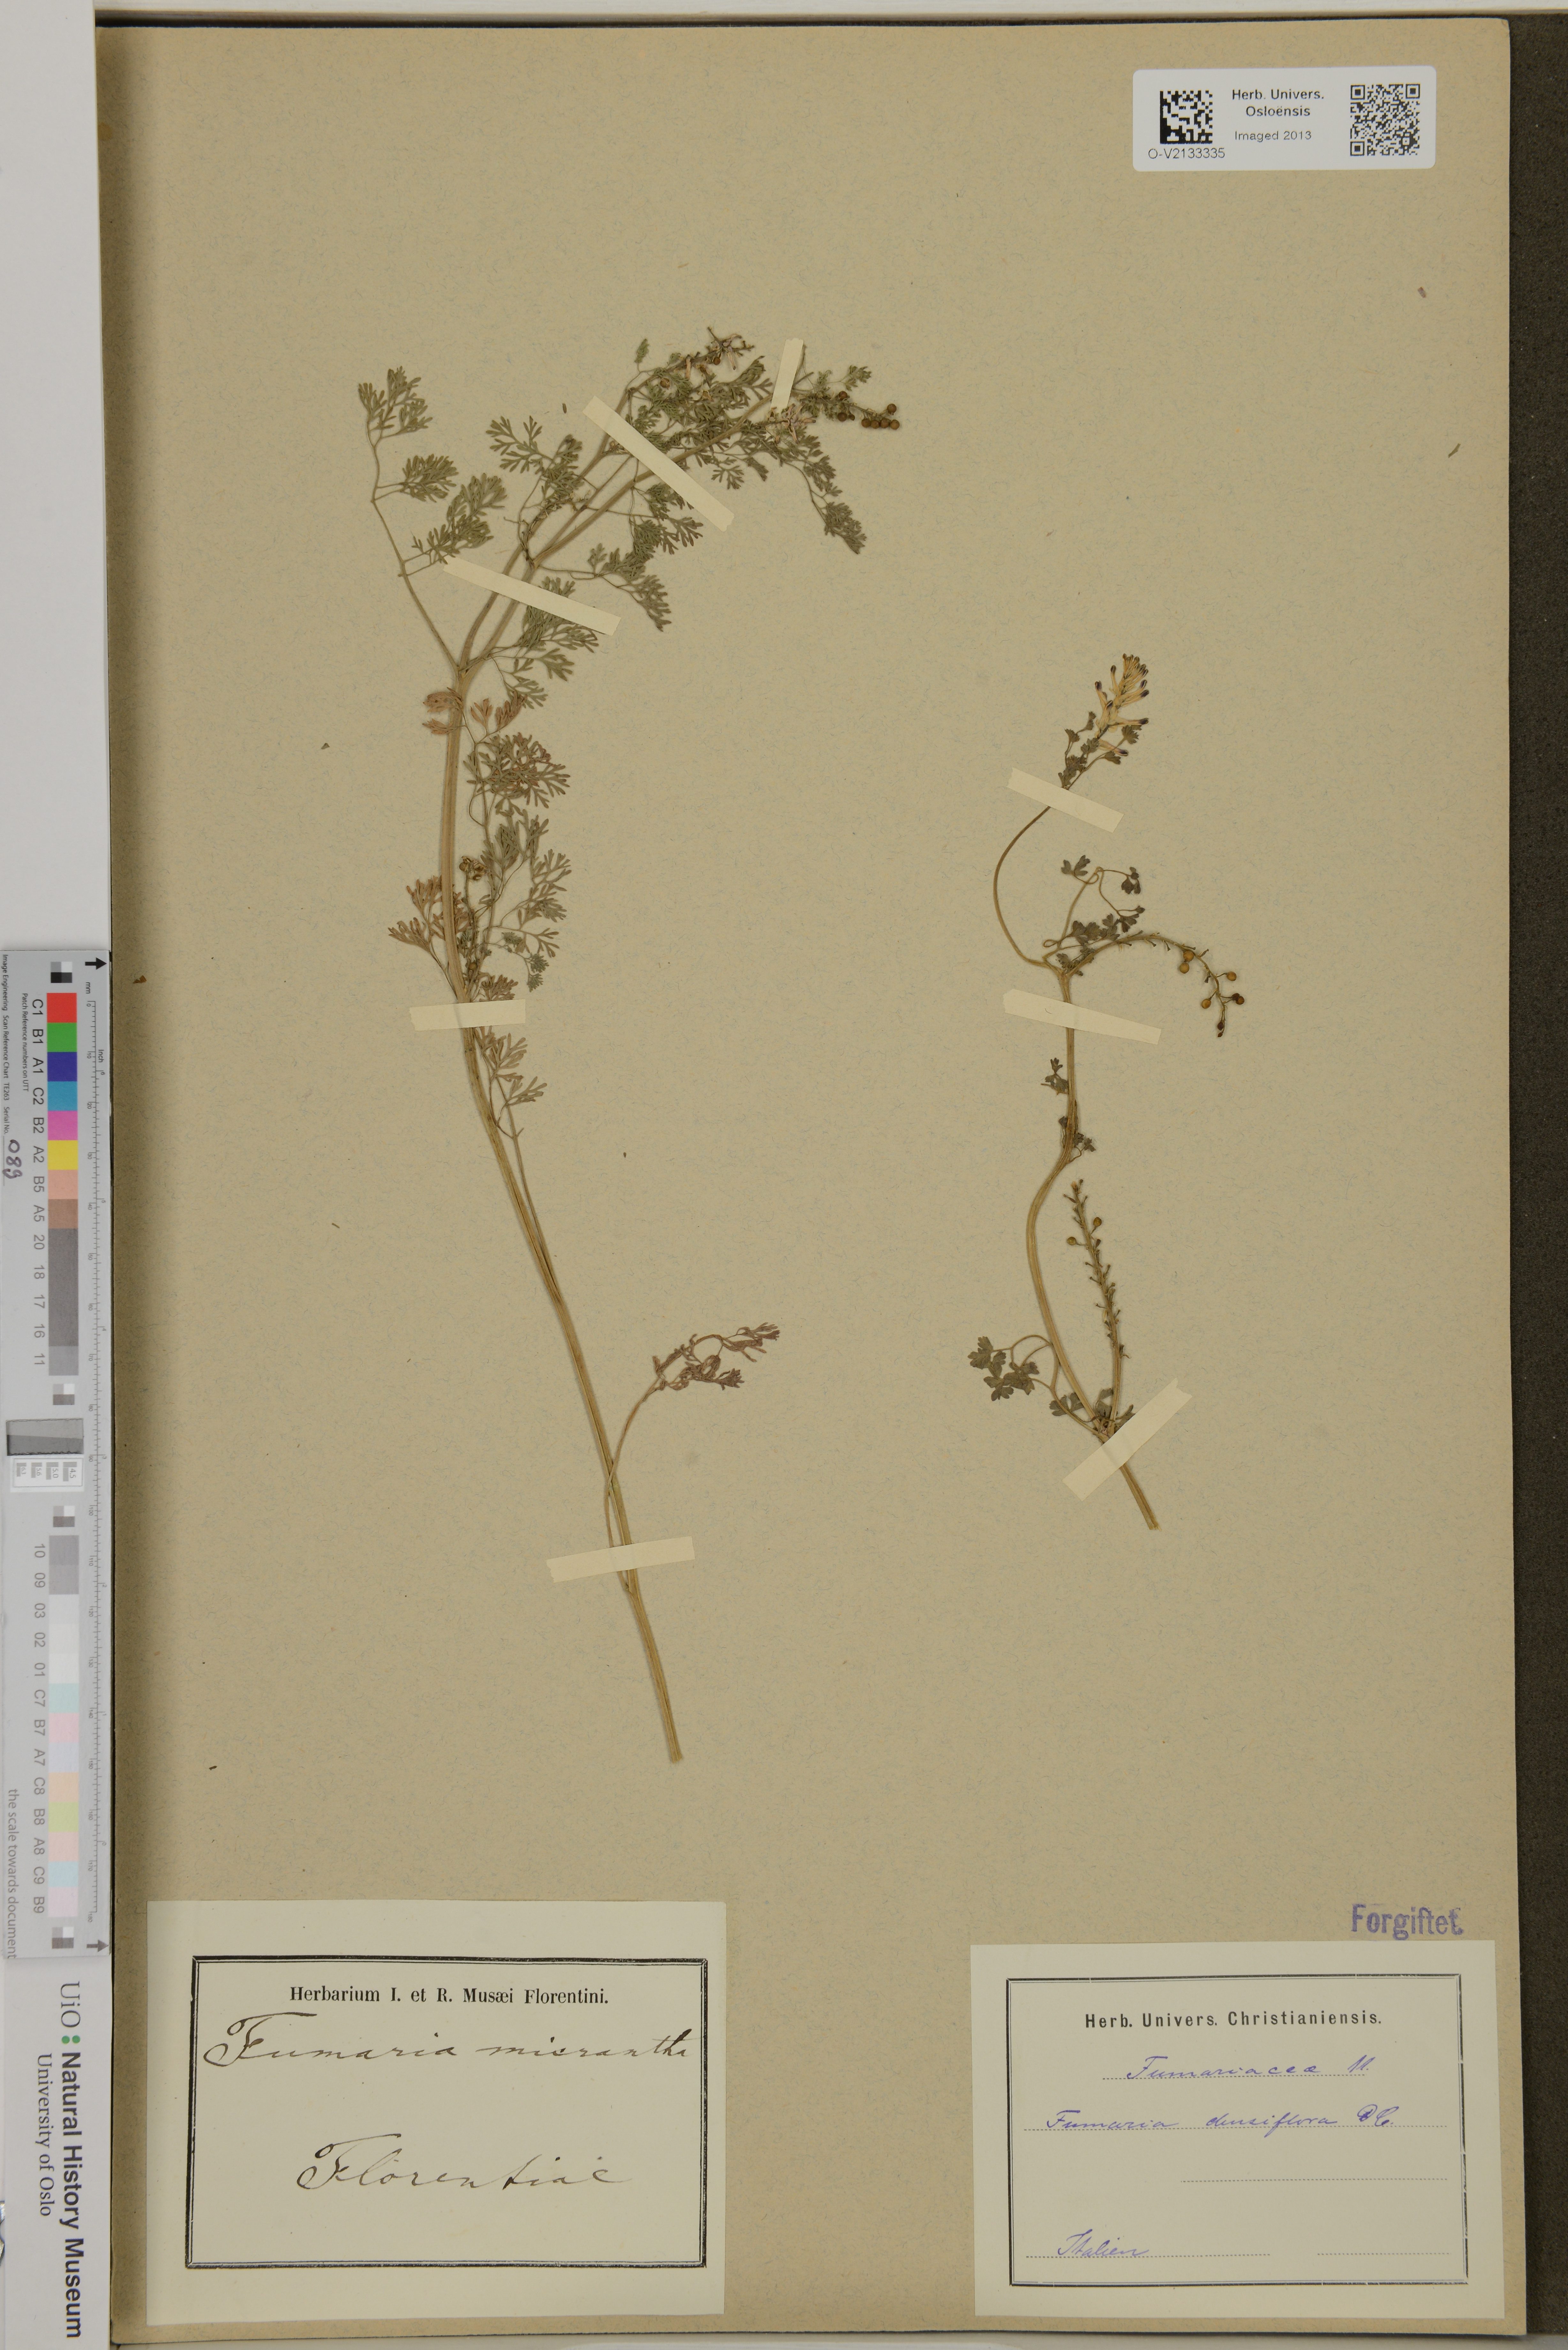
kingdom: Plantae
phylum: Tracheophyta
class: Magnoliopsida
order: Ranunculales
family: Papaveraceae
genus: Fumaria
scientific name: Fumaria densiflora
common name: Dense-flowered fumitory
